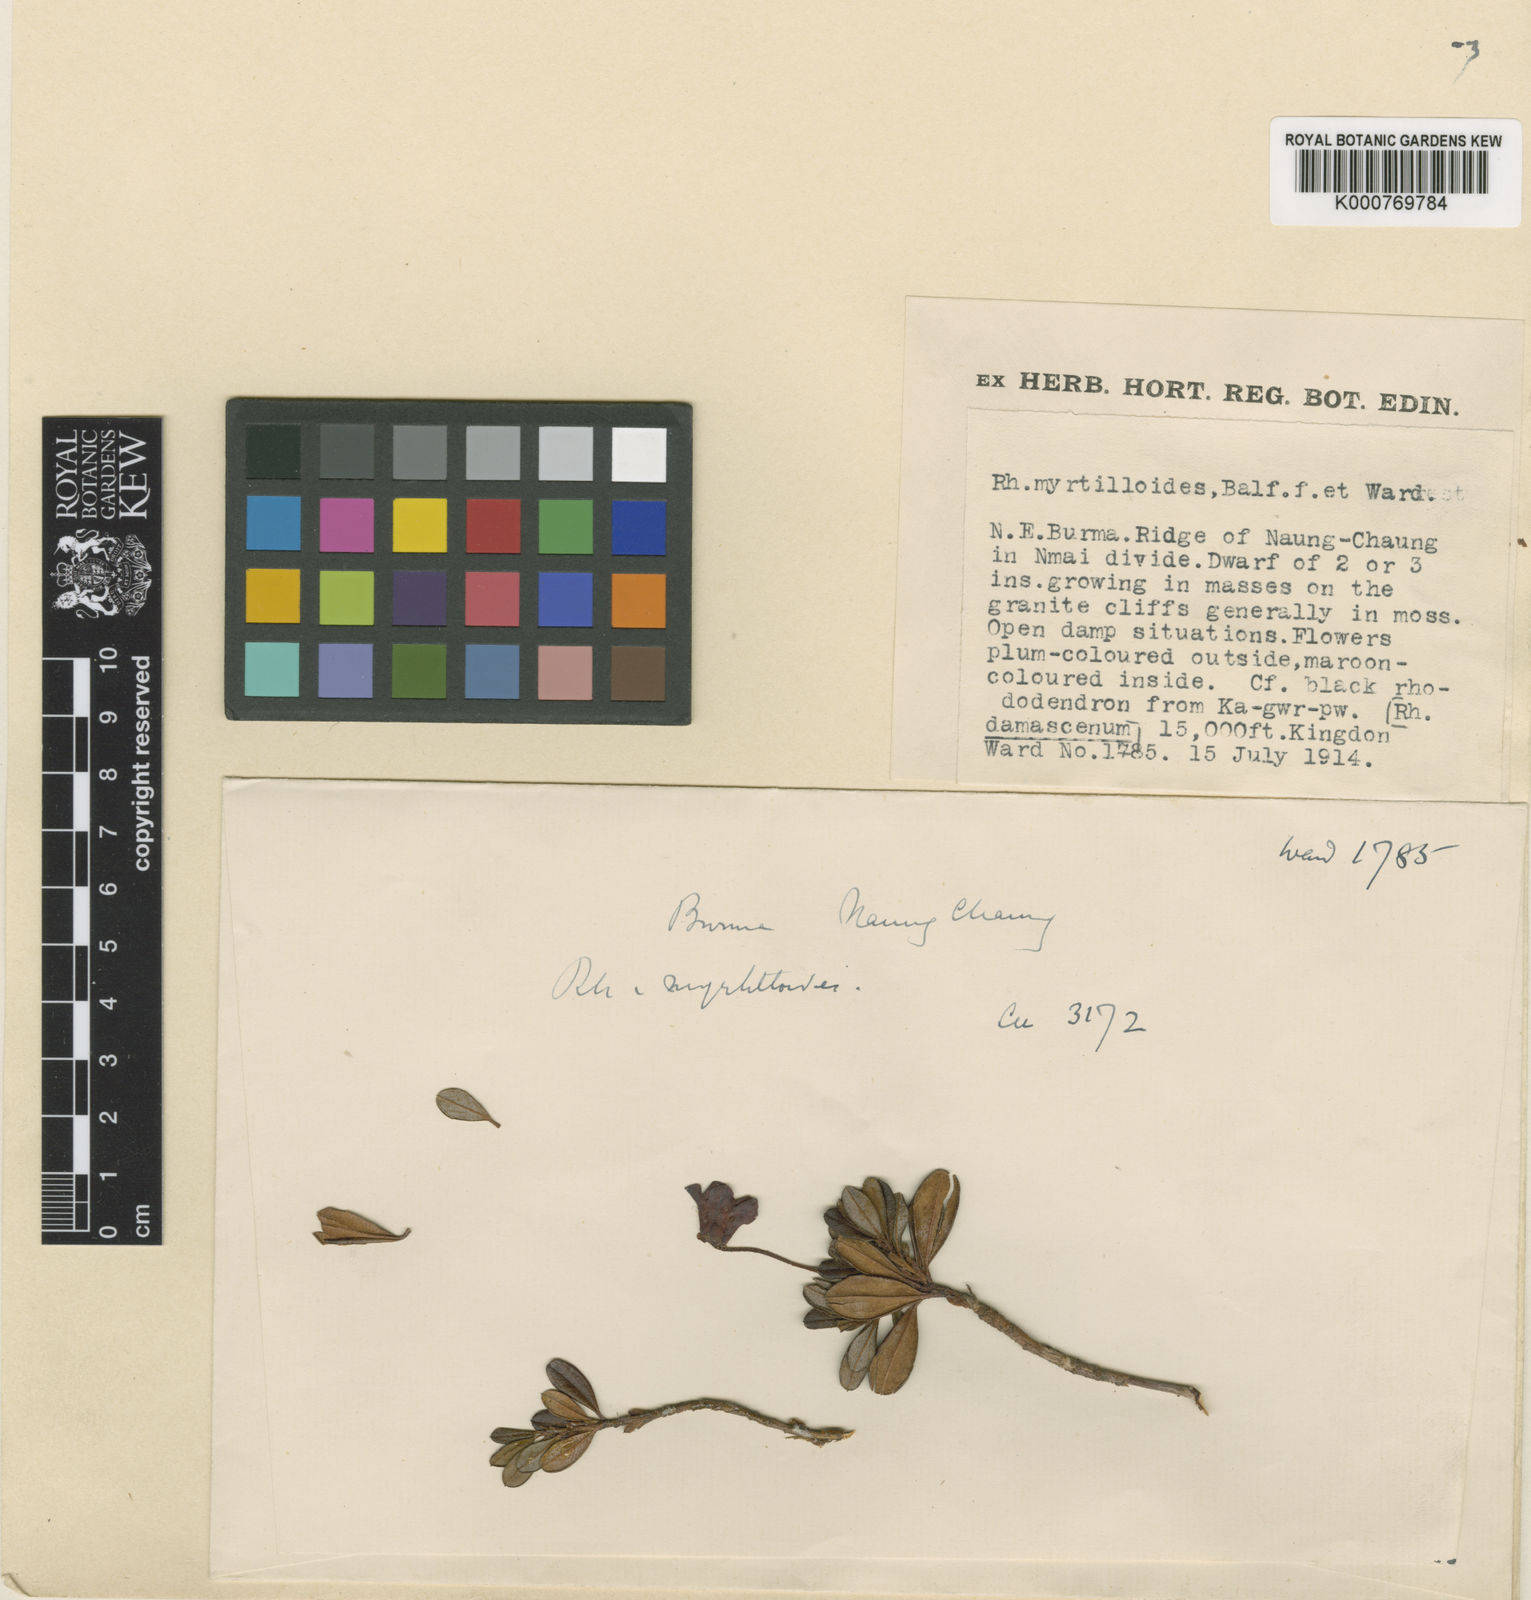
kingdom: Plantae
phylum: Tracheophyta
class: Magnoliopsida
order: Ericales
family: Ericaceae
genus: Rhododendron
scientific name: Rhododendron campylogynum
